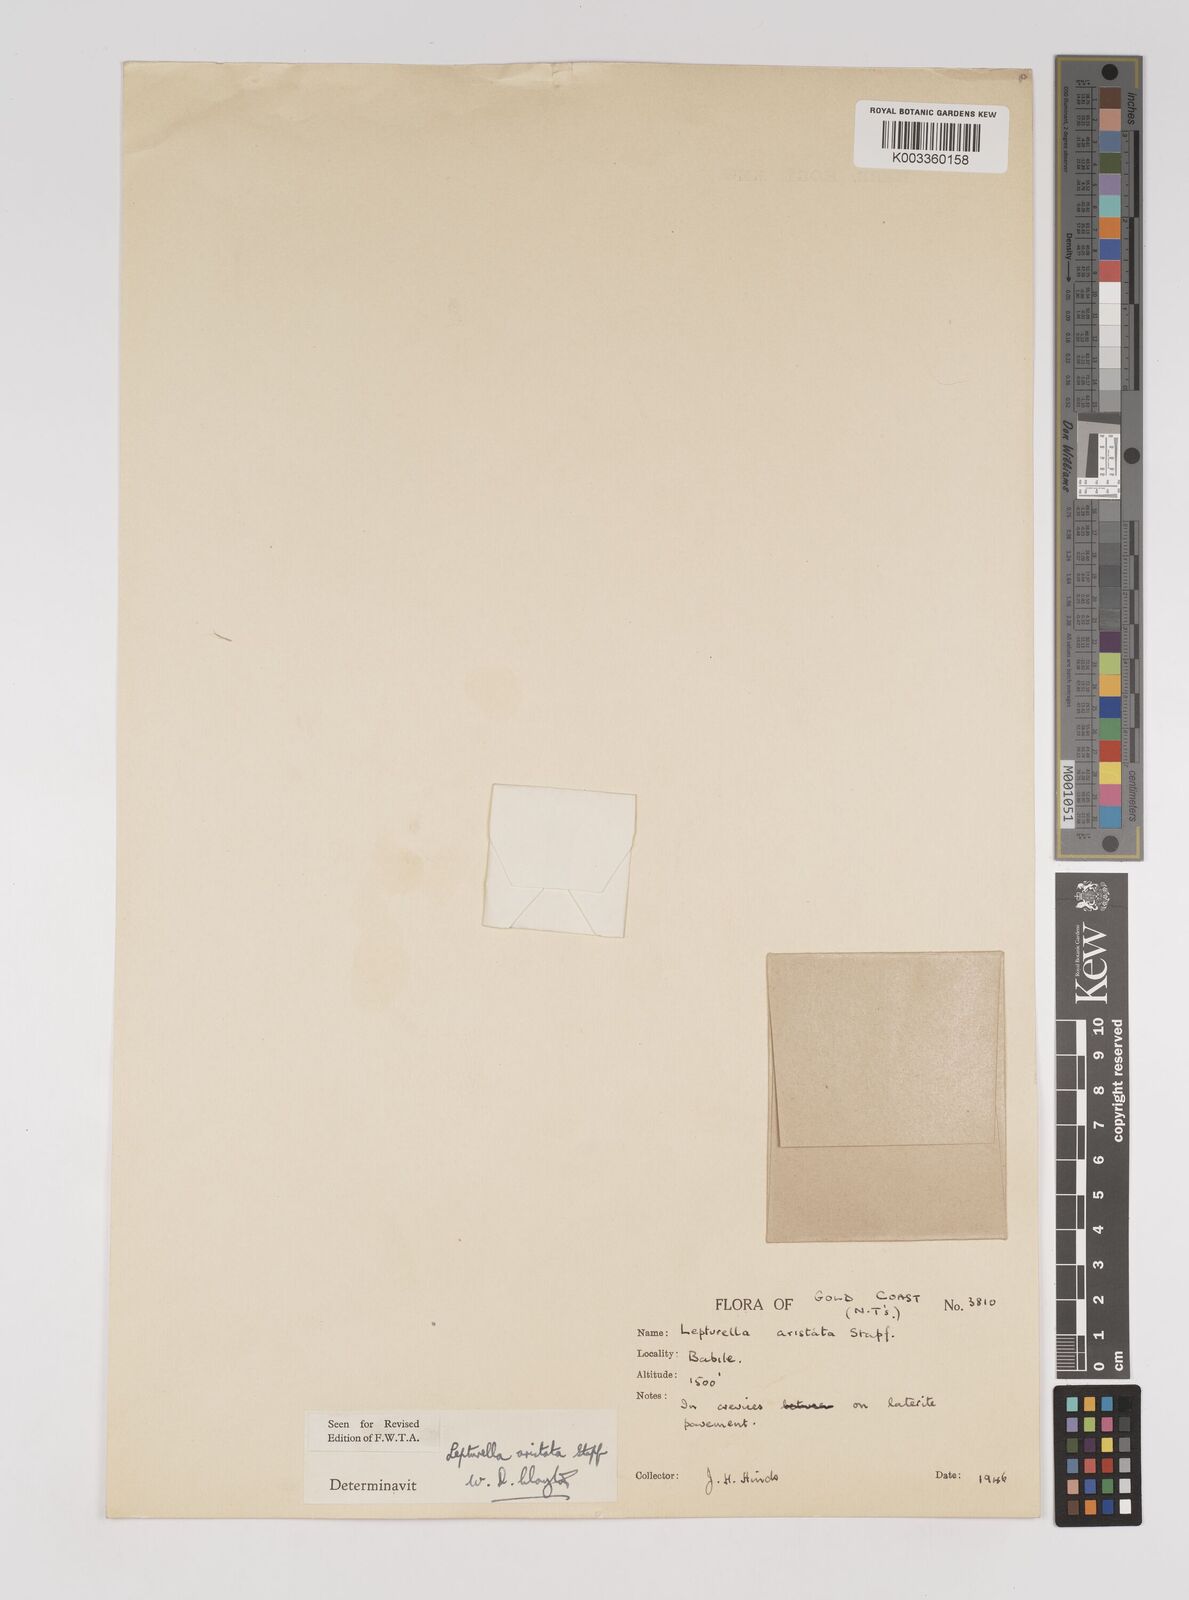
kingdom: Plantae
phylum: Tracheophyta
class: Liliopsida
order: Poales
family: Poaceae
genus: Oropetium
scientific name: Oropetium aristatum
